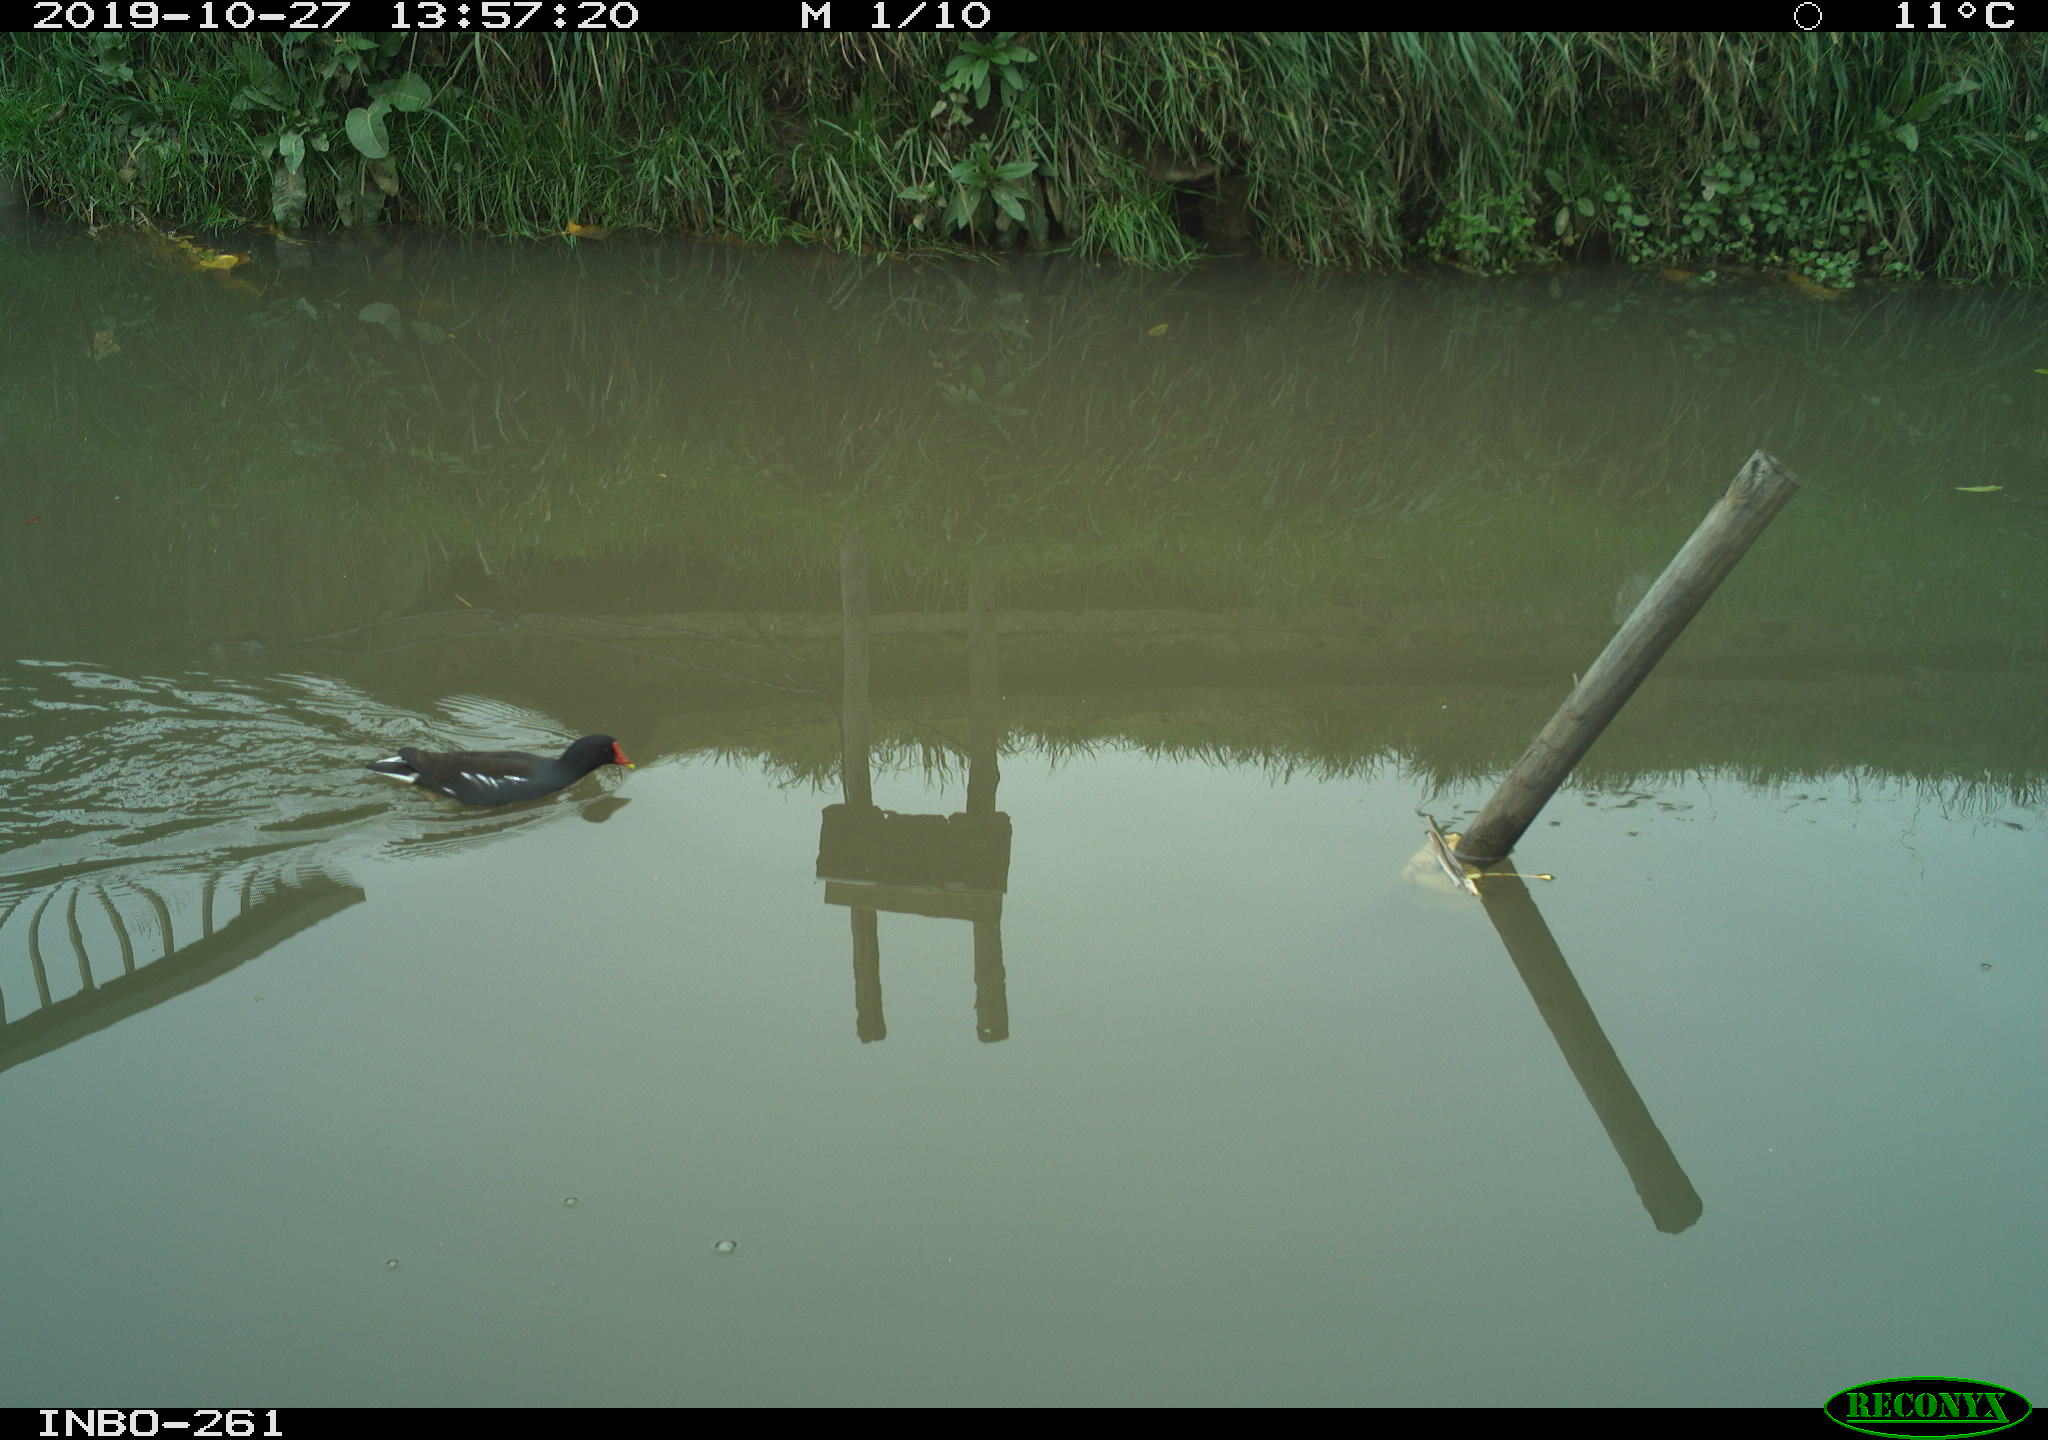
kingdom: Animalia
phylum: Chordata
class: Aves
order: Gruiformes
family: Rallidae
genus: Gallinula
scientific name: Gallinula chloropus
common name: Common moorhen
